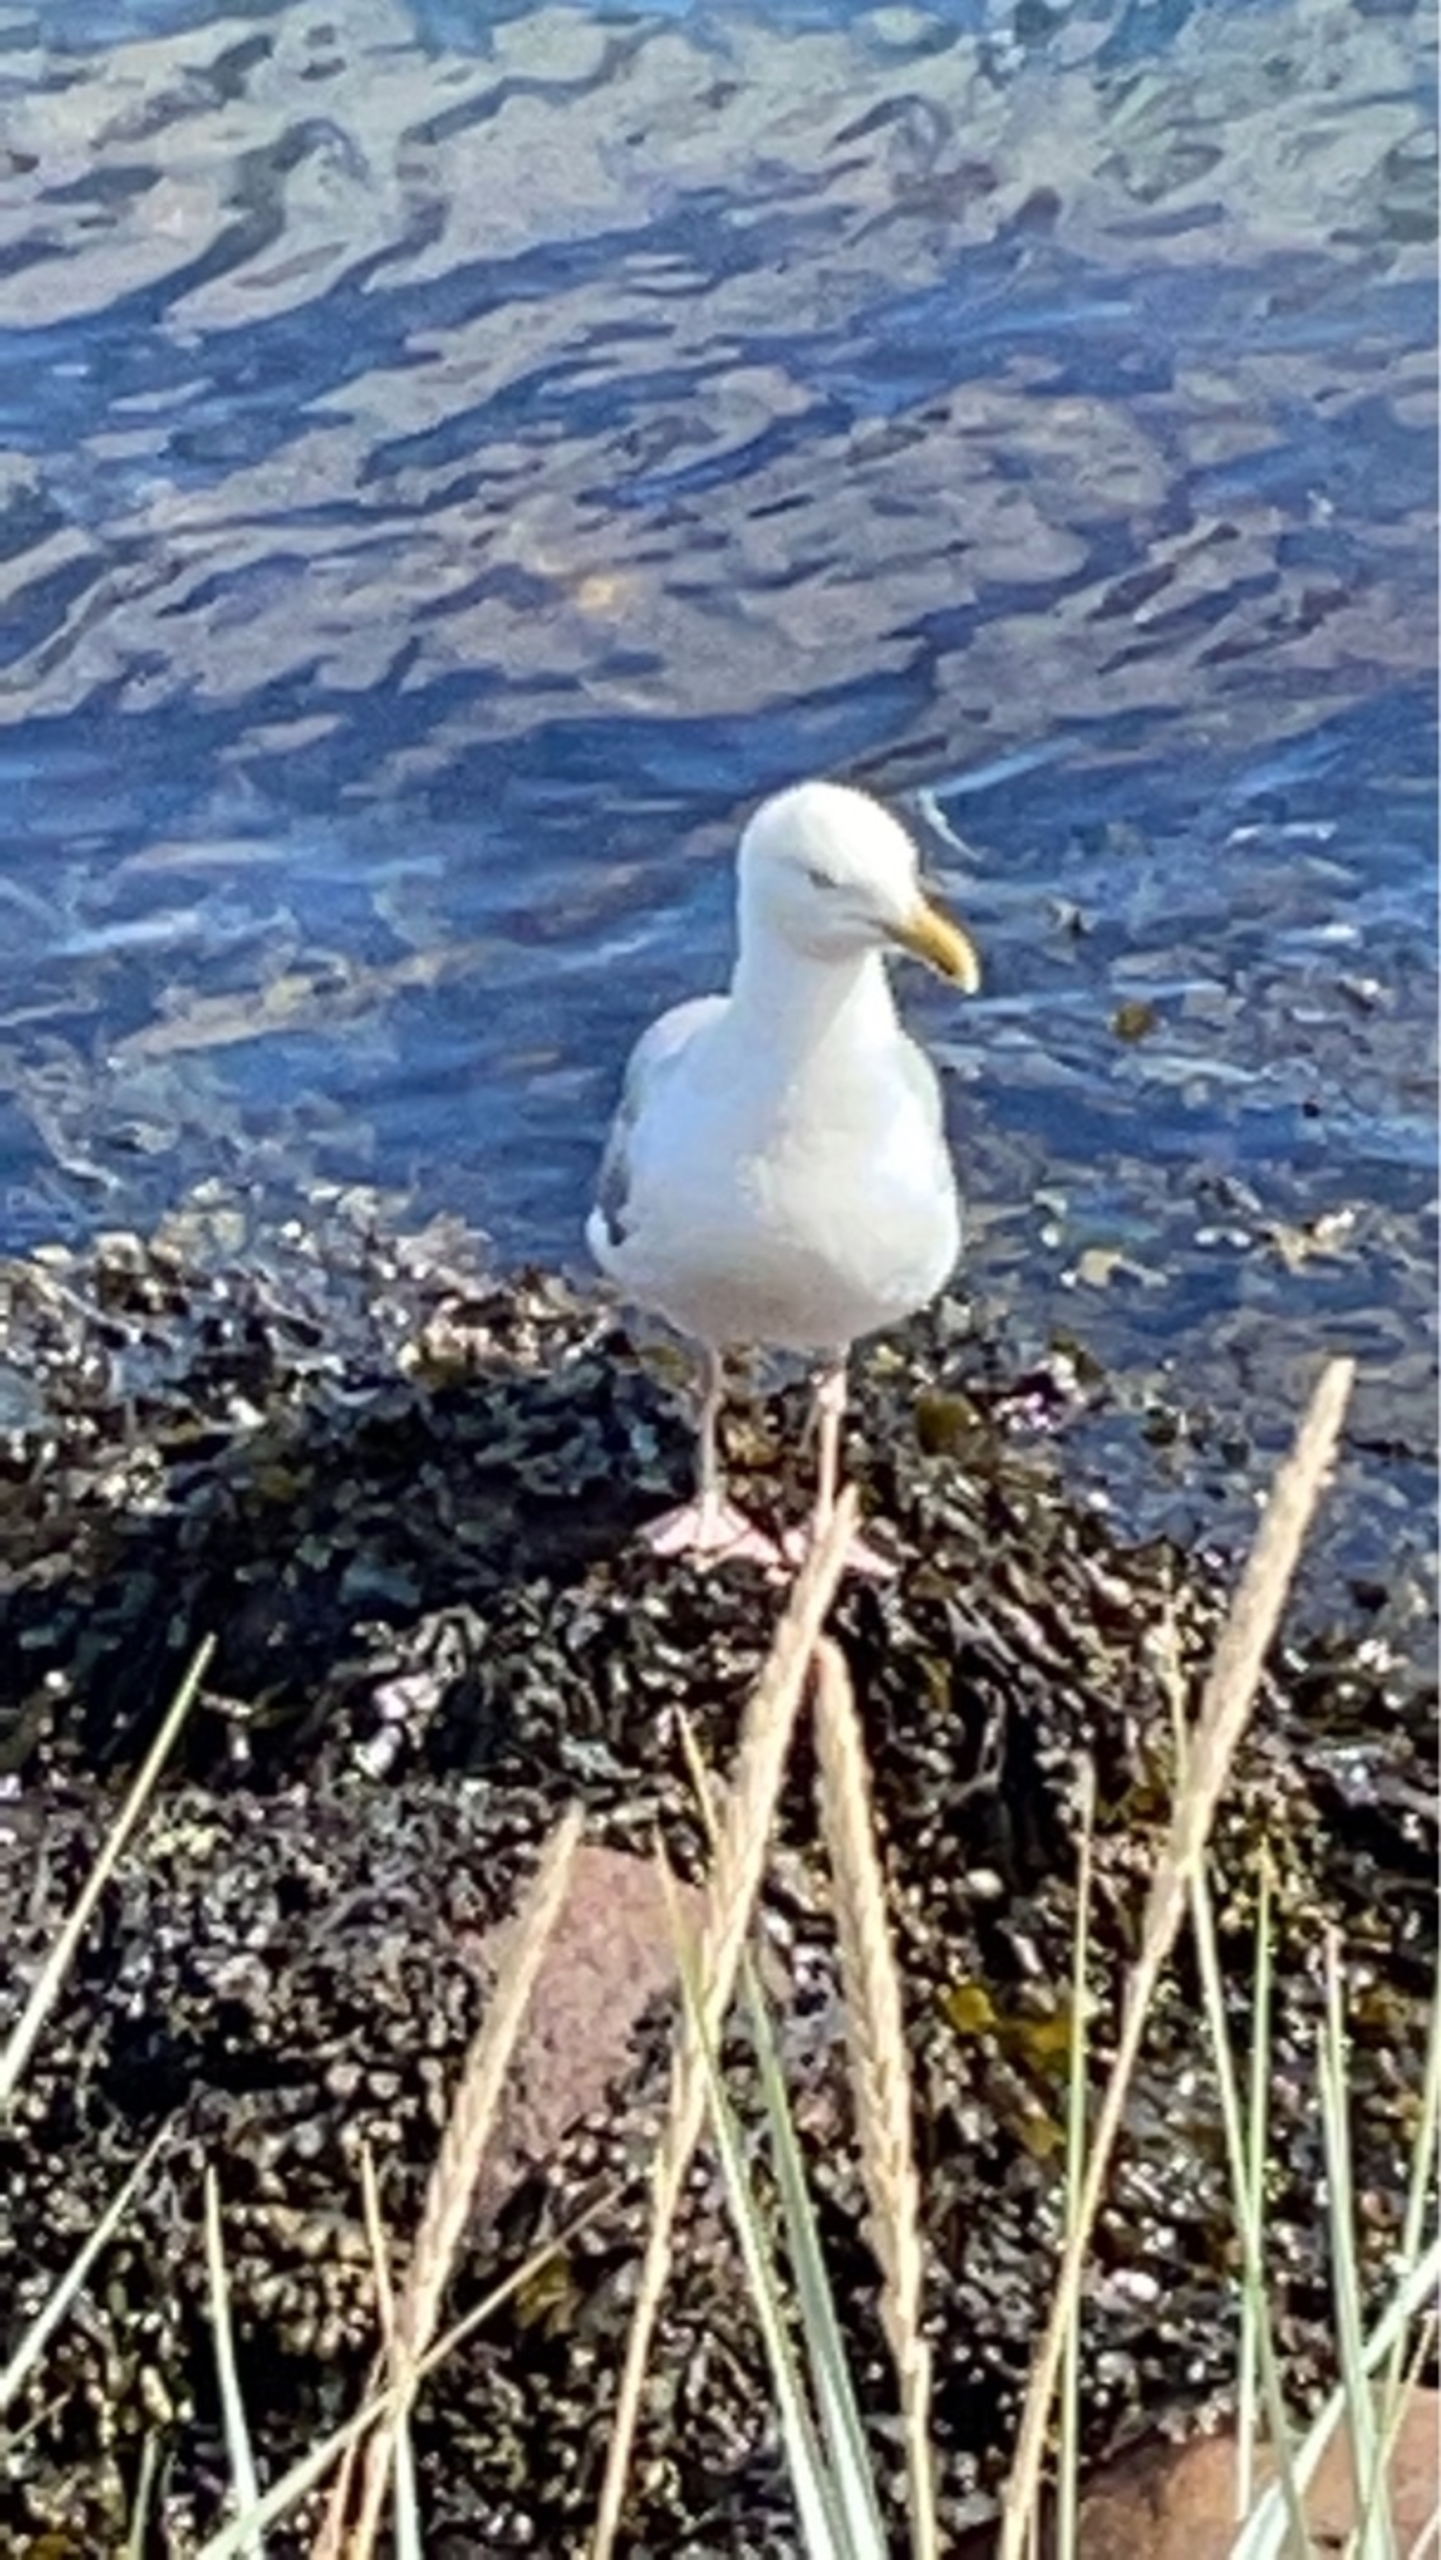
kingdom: Animalia
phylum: Chordata
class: Aves
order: Charadriiformes
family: Laridae
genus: Larus
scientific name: Larus argentatus
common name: Sølvmåge
